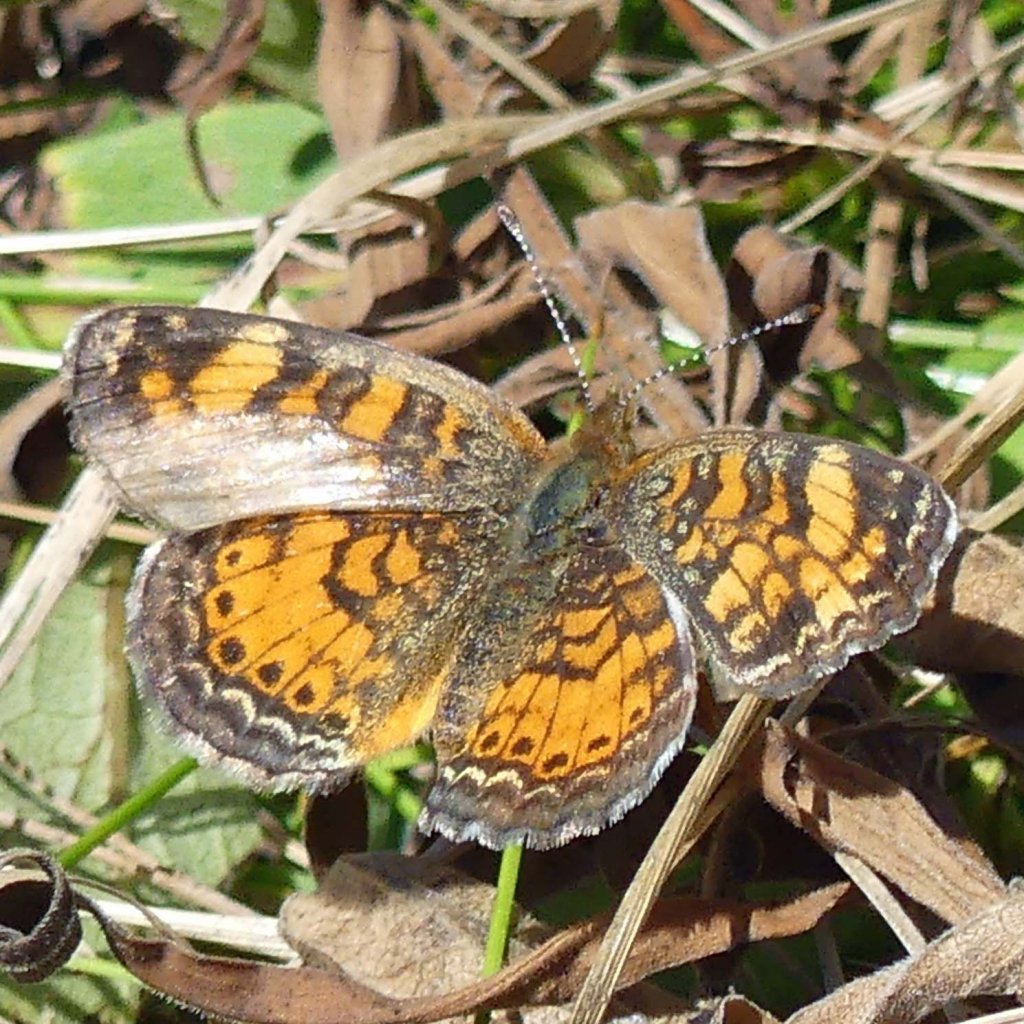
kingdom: Animalia
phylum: Arthropoda
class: Insecta
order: Lepidoptera
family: Nymphalidae
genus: Phyciodes
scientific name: Phyciodes tharos
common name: Pearl Crescent
